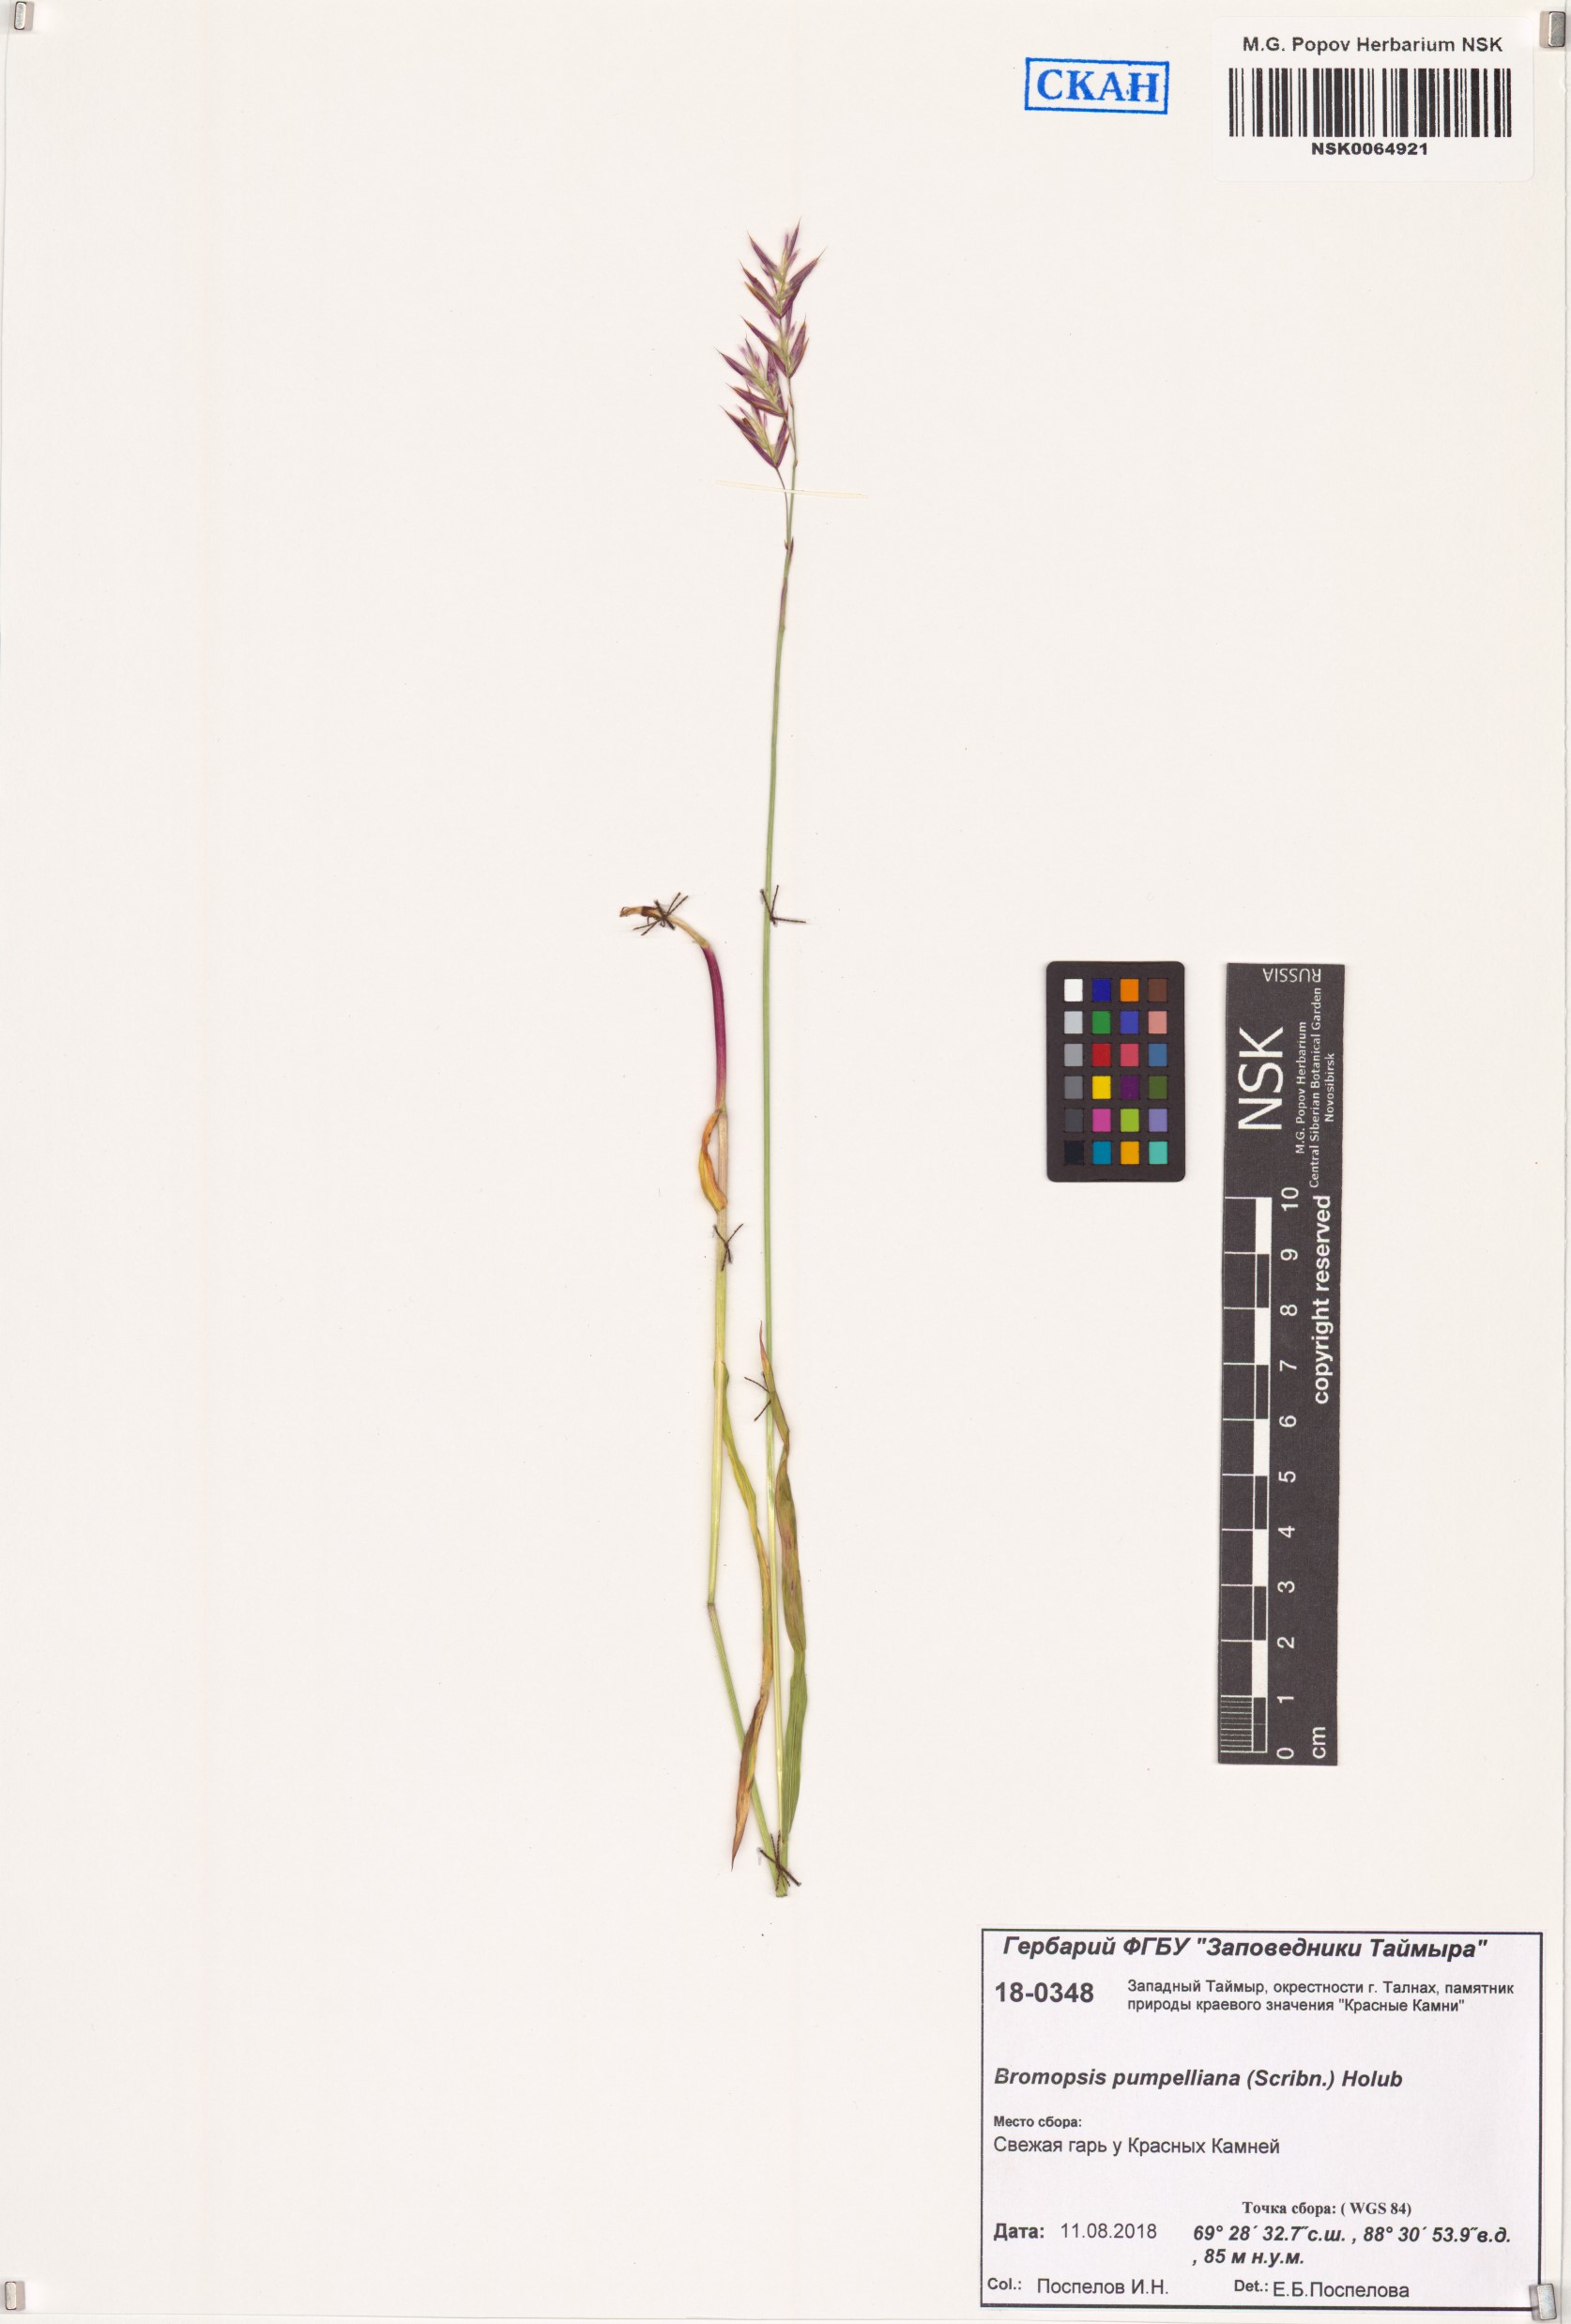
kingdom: Plantae
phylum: Tracheophyta
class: Liliopsida
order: Poales
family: Poaceae
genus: Bromus
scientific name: Bromus pumpellianus
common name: Pumpelly's brome
